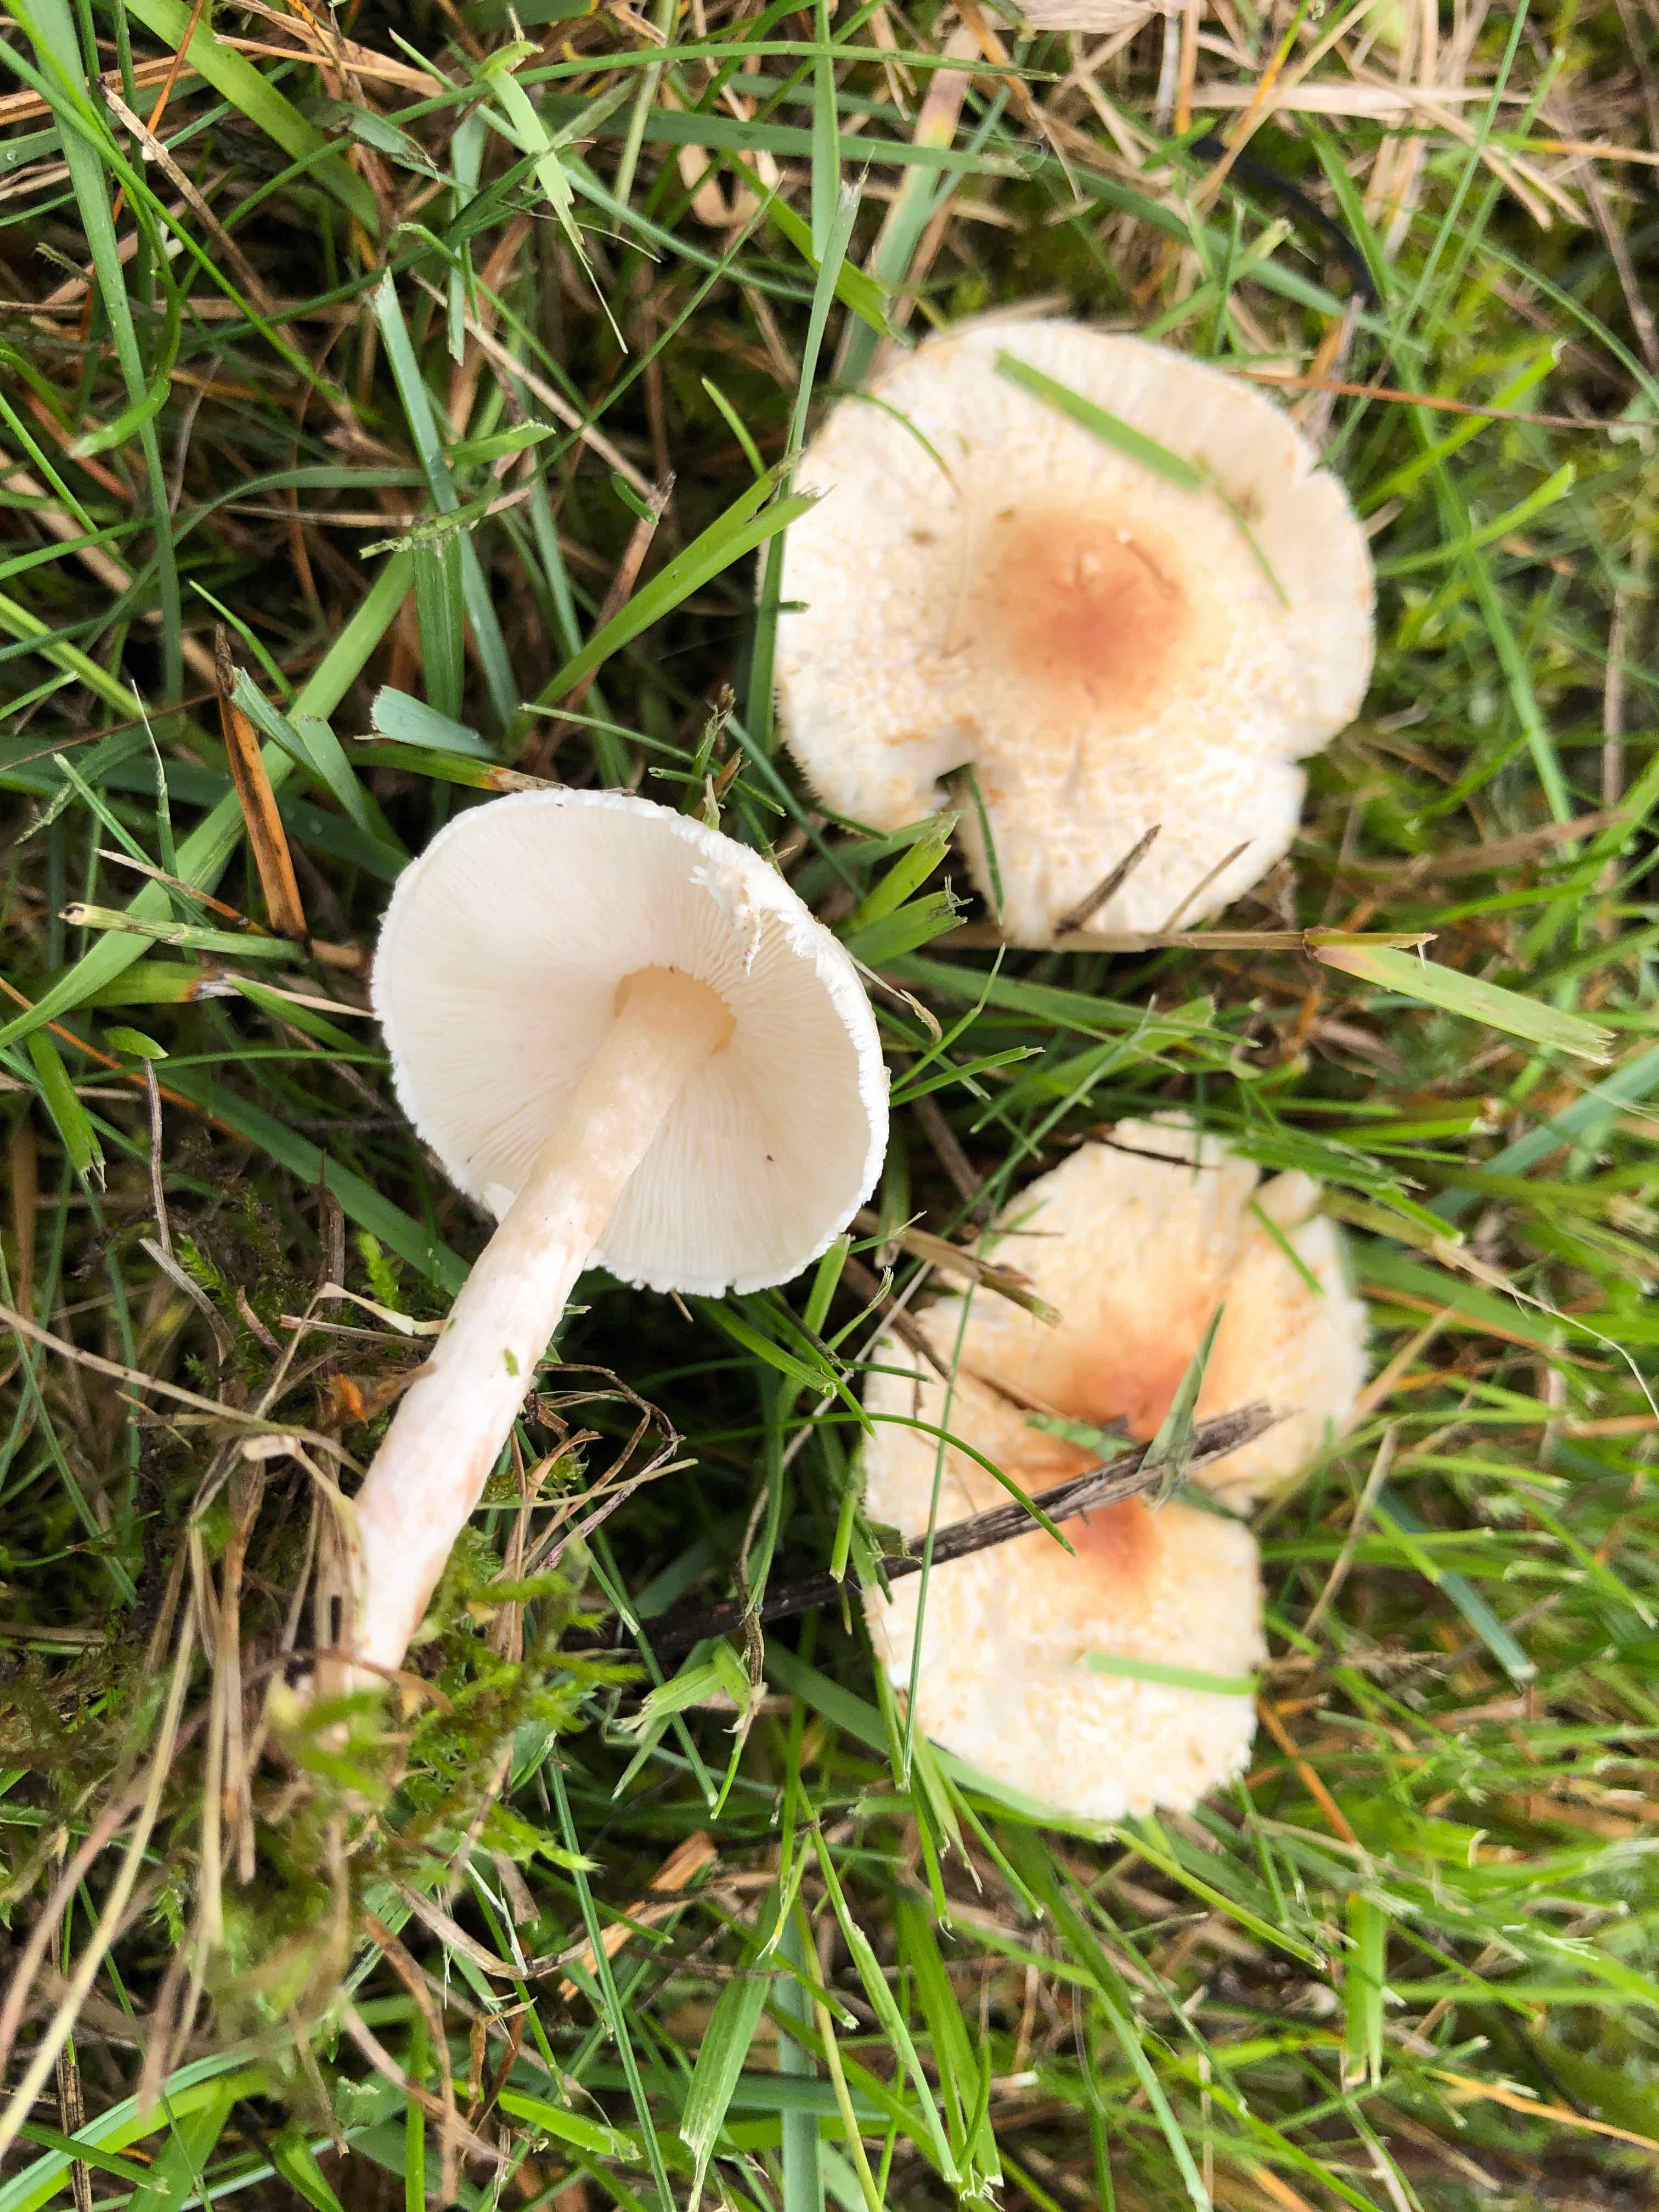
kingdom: Fungi
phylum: Basidiomycota
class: Agaricomycetes
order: Agaricales
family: Agaricaceae
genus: Lepiota
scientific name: Lepiota cristata
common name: stinkende parasolhat
